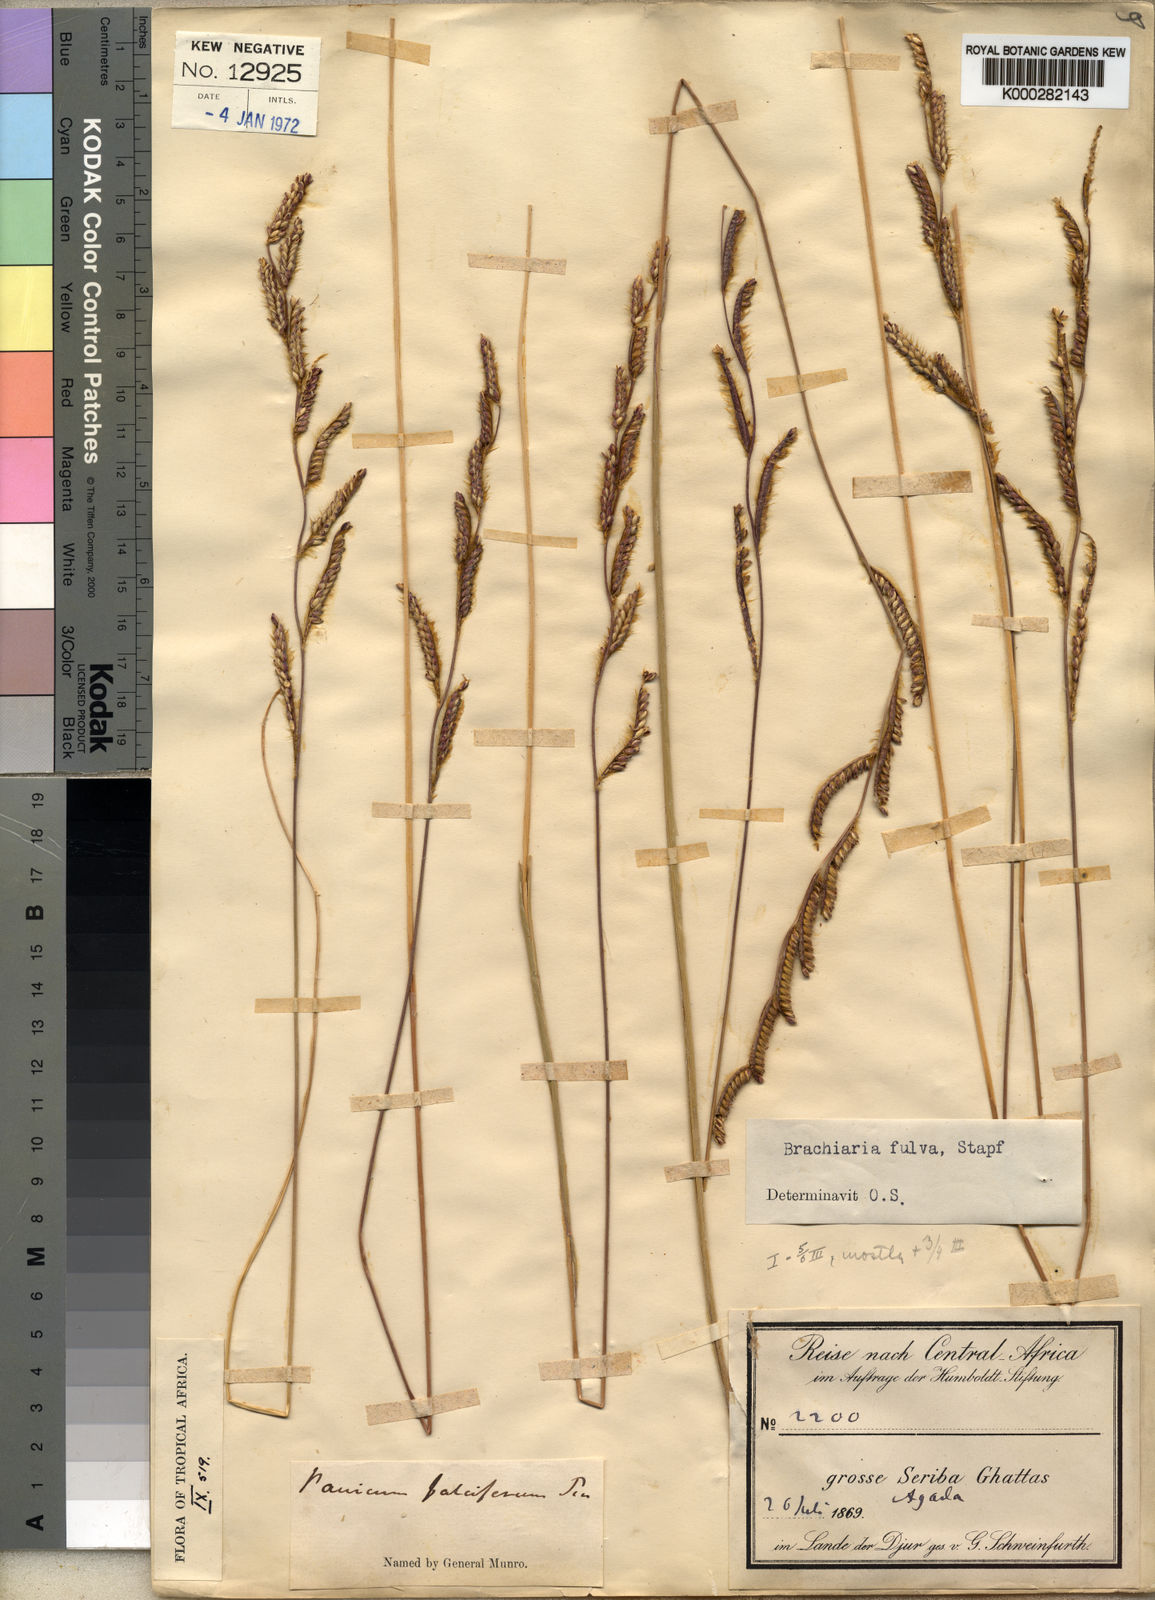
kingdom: Plantae
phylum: Tracheophyta
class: Liliopsida
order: Poales
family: Poaceae
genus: Urochloa
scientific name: Urochloa jubata
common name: Buffalograss
